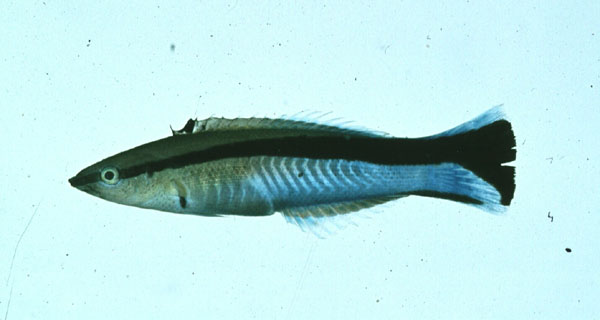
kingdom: Animalia
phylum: Chordata
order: Perciformes
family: Labridae
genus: Labroides
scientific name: Labroides dimidiatus
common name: Blue diesel wrasse
